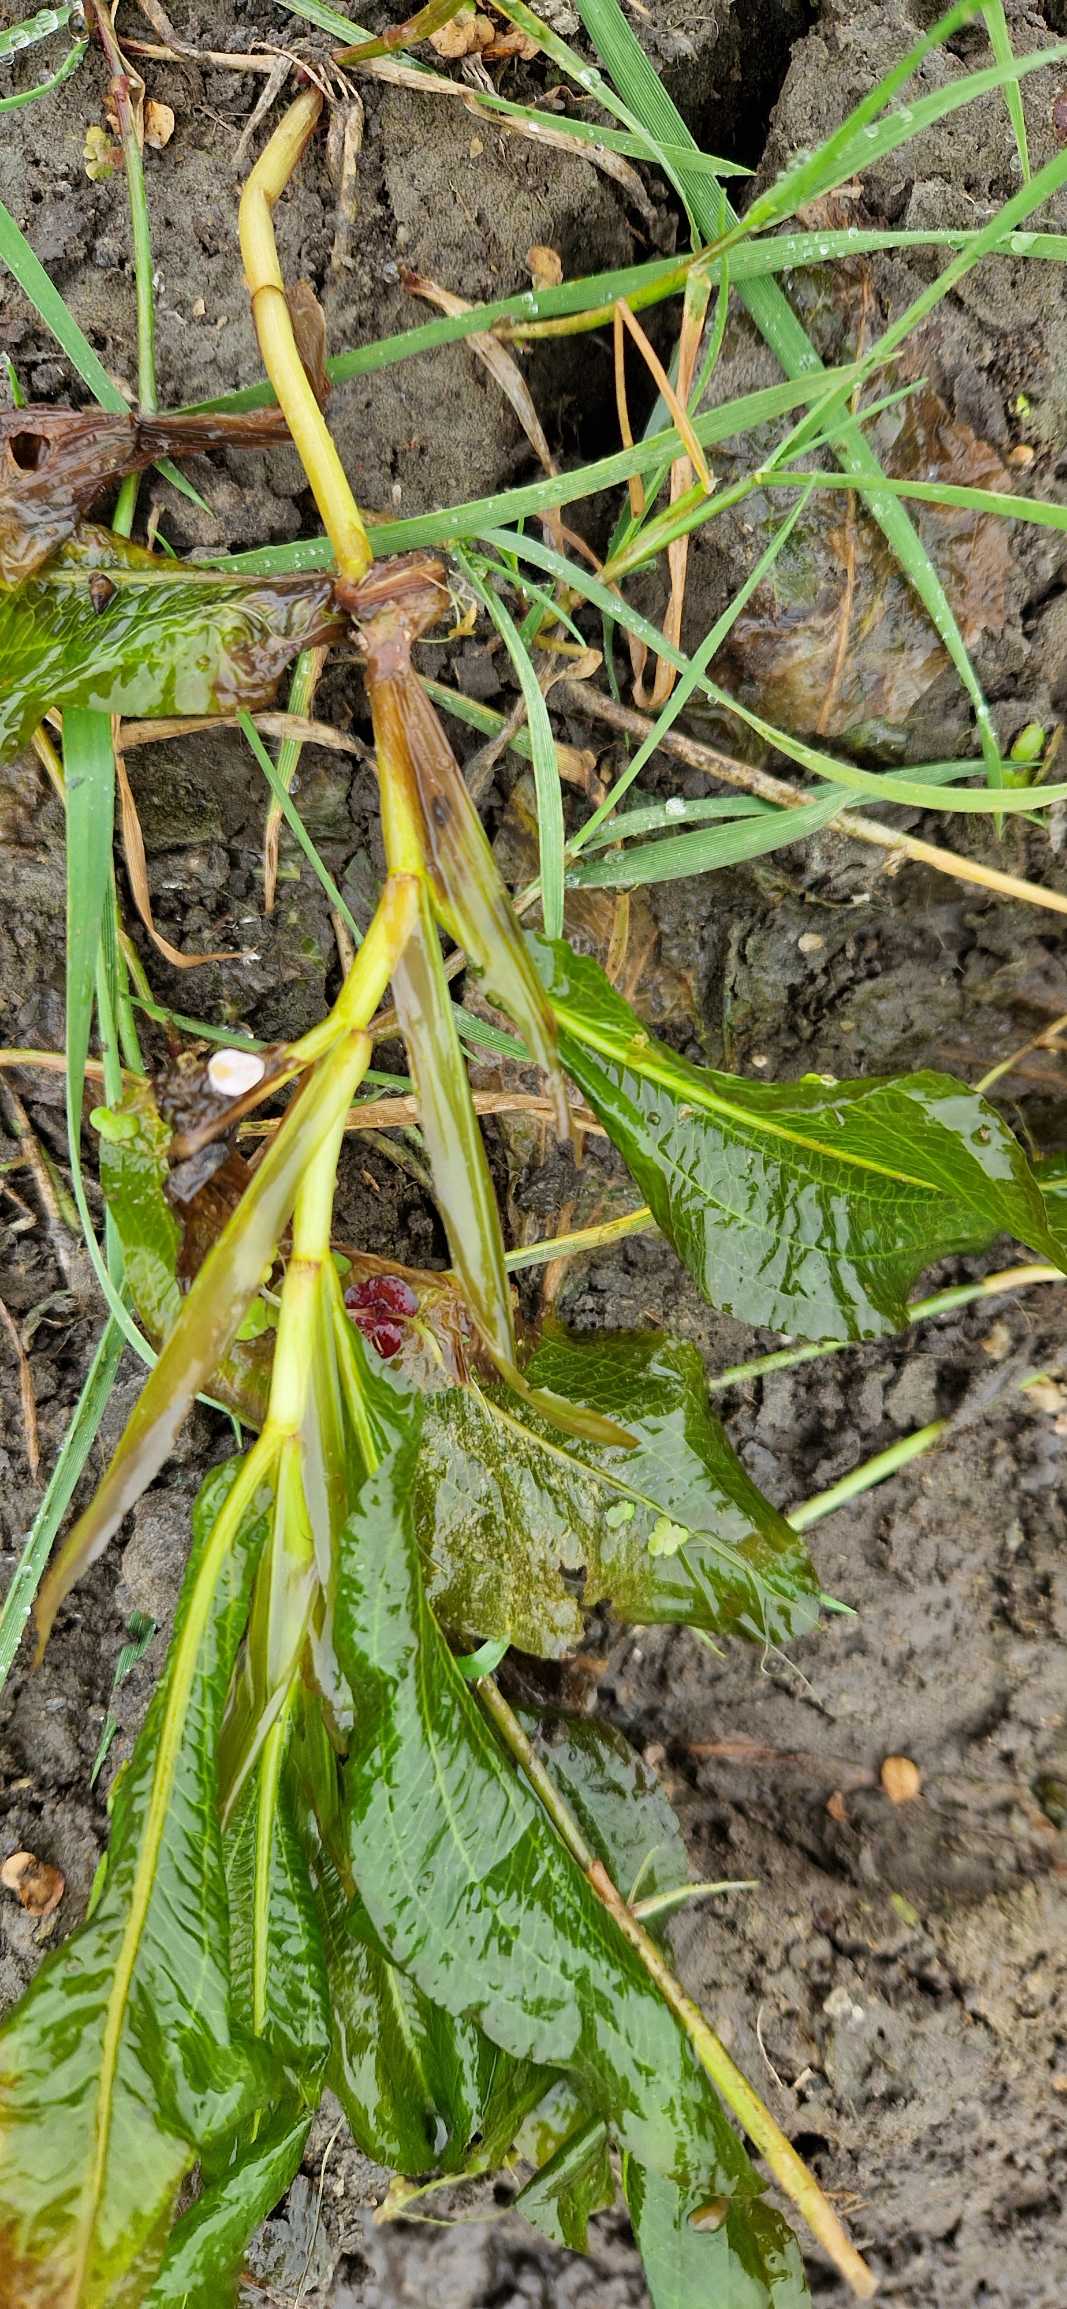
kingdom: Plantae
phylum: Tracheophyta
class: Liliopsida
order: Alismatales
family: Potamogetonaceae
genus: Potamogeton
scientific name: Potamogeton lucens
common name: Glinsende vandaks
